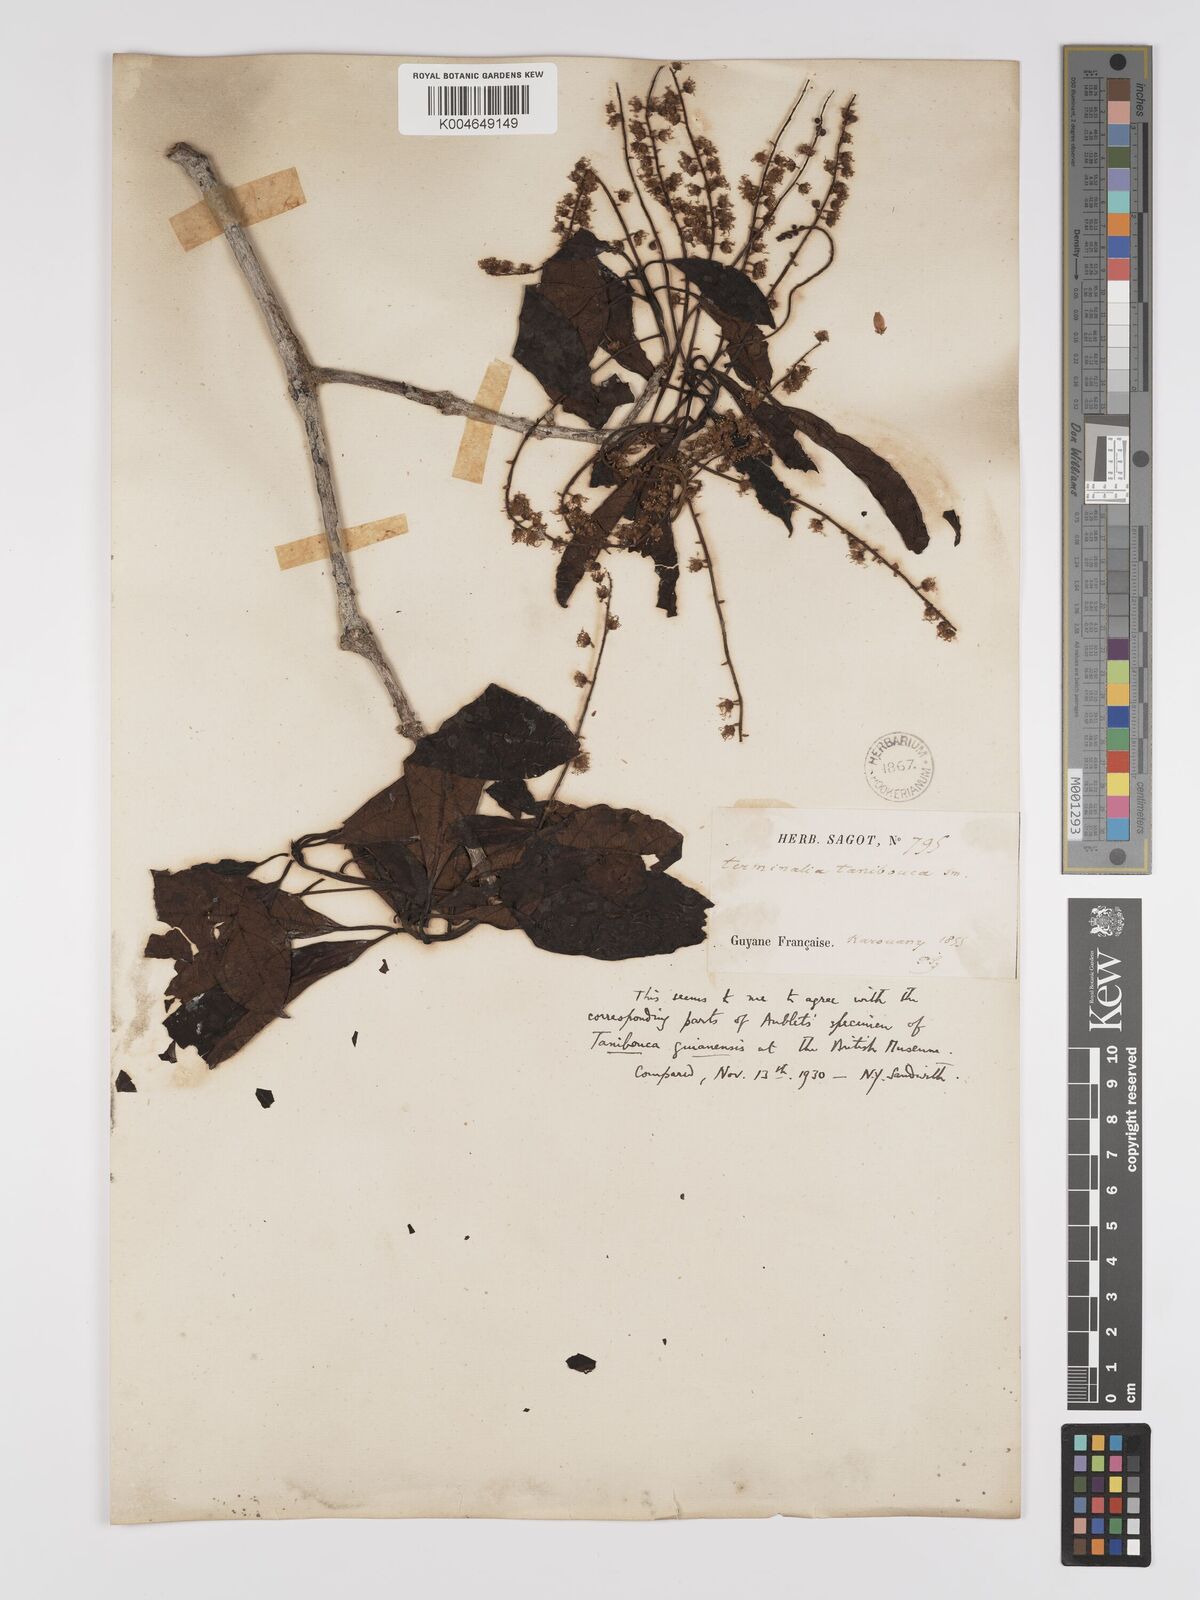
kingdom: Plantae
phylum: Tracheophyta
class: Magnoliopsida
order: Myrtales
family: Combretaceae
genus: Terminalia
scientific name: Terminalia dichotoma
